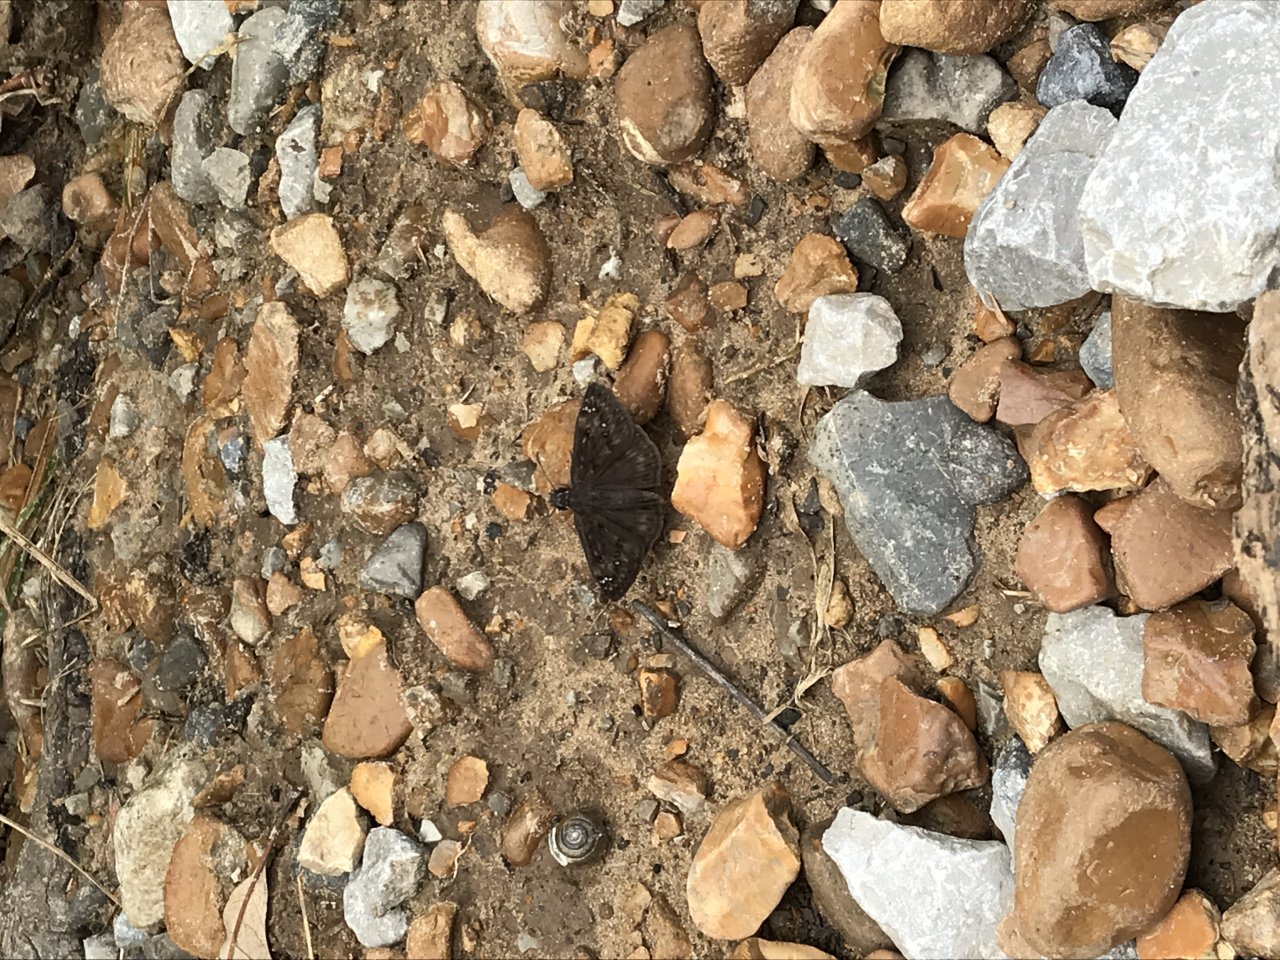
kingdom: Animalia
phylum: Arthropoda
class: Insecta
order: Lepidoptera
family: Hesperiidae
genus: Gesta
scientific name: Gesta
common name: Horace's Duskywing
